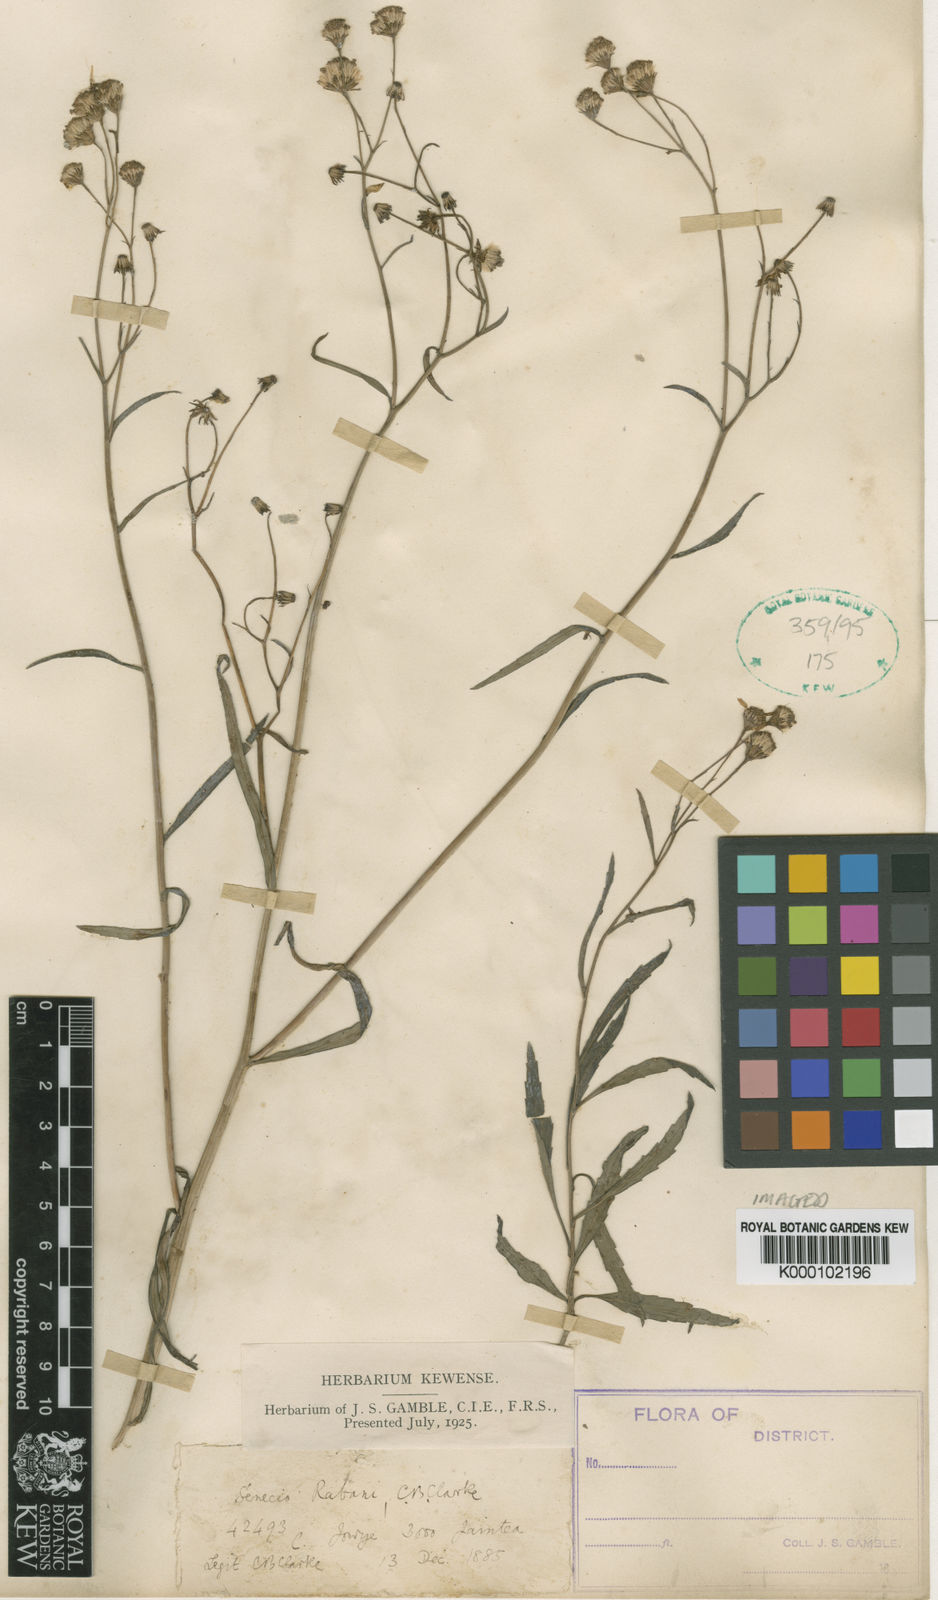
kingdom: Plantae
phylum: Tracheophyta
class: Magnoliopsida
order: Asterales
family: Asteraceae
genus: Senecio
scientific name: Senecio wightii
